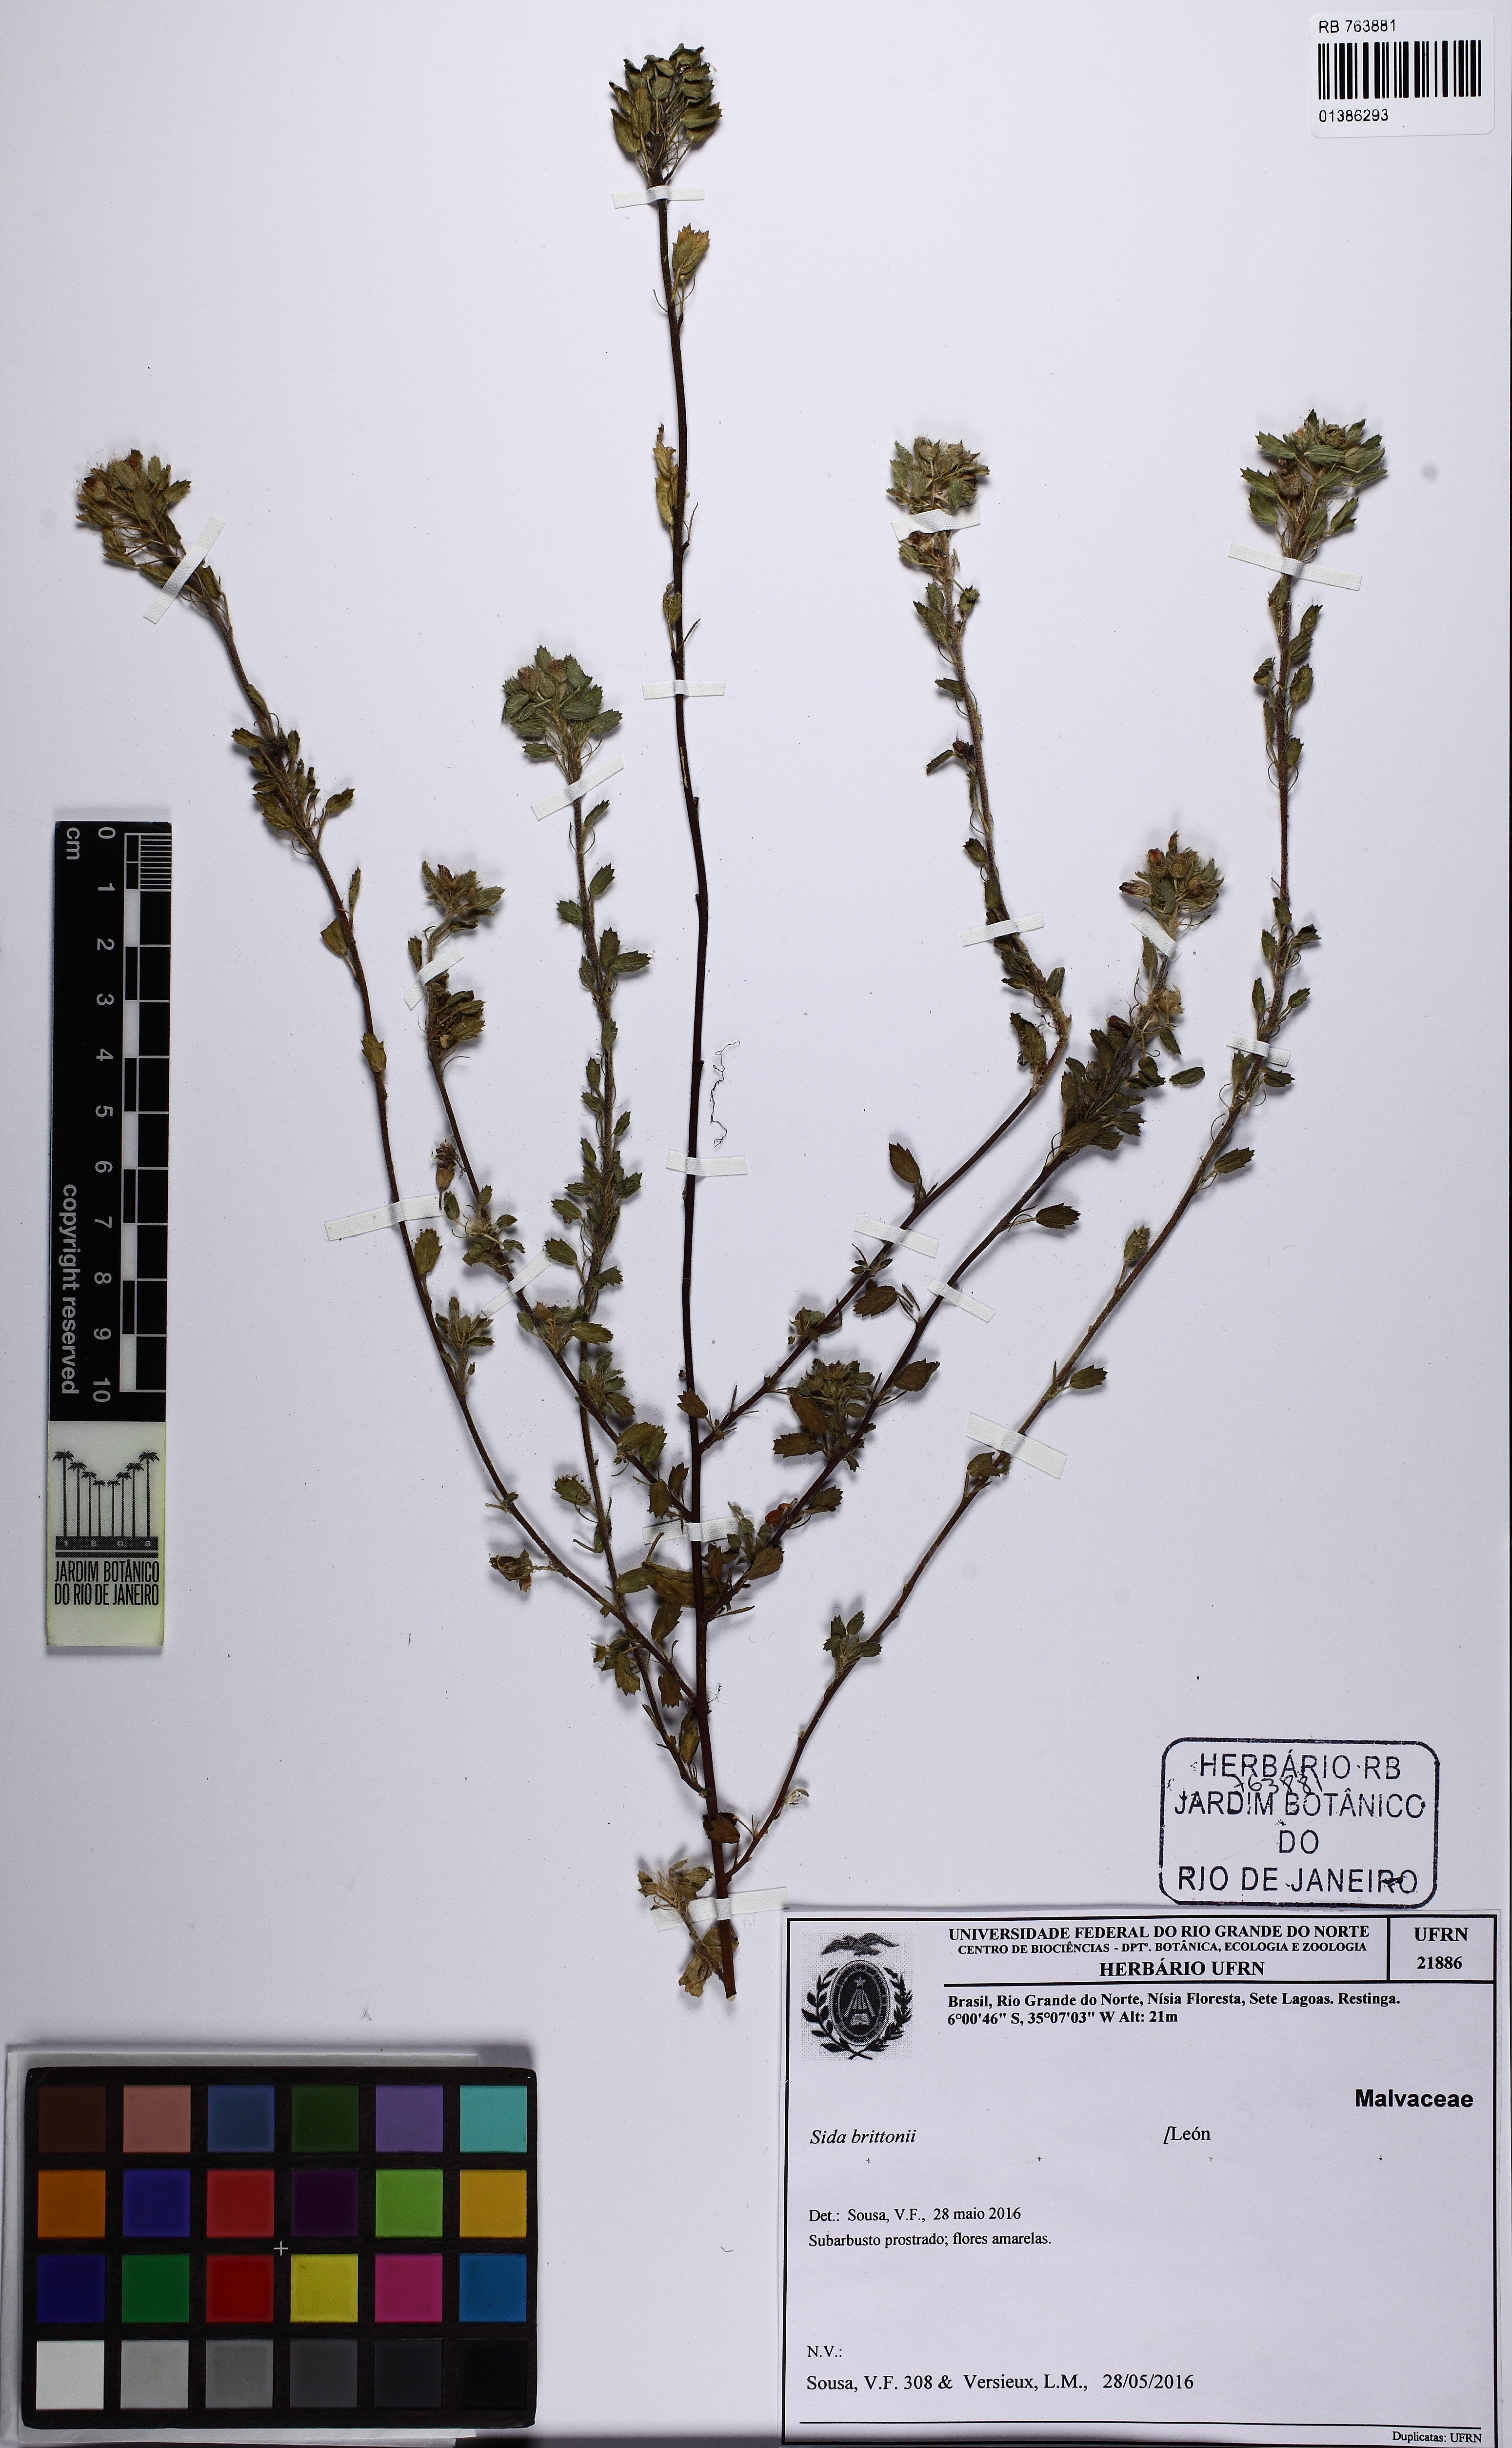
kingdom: Plantae
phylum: Tracheophyta
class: Magnoliopsida
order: Malvales
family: Malvaceae
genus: Sida
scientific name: Sida brittonii
